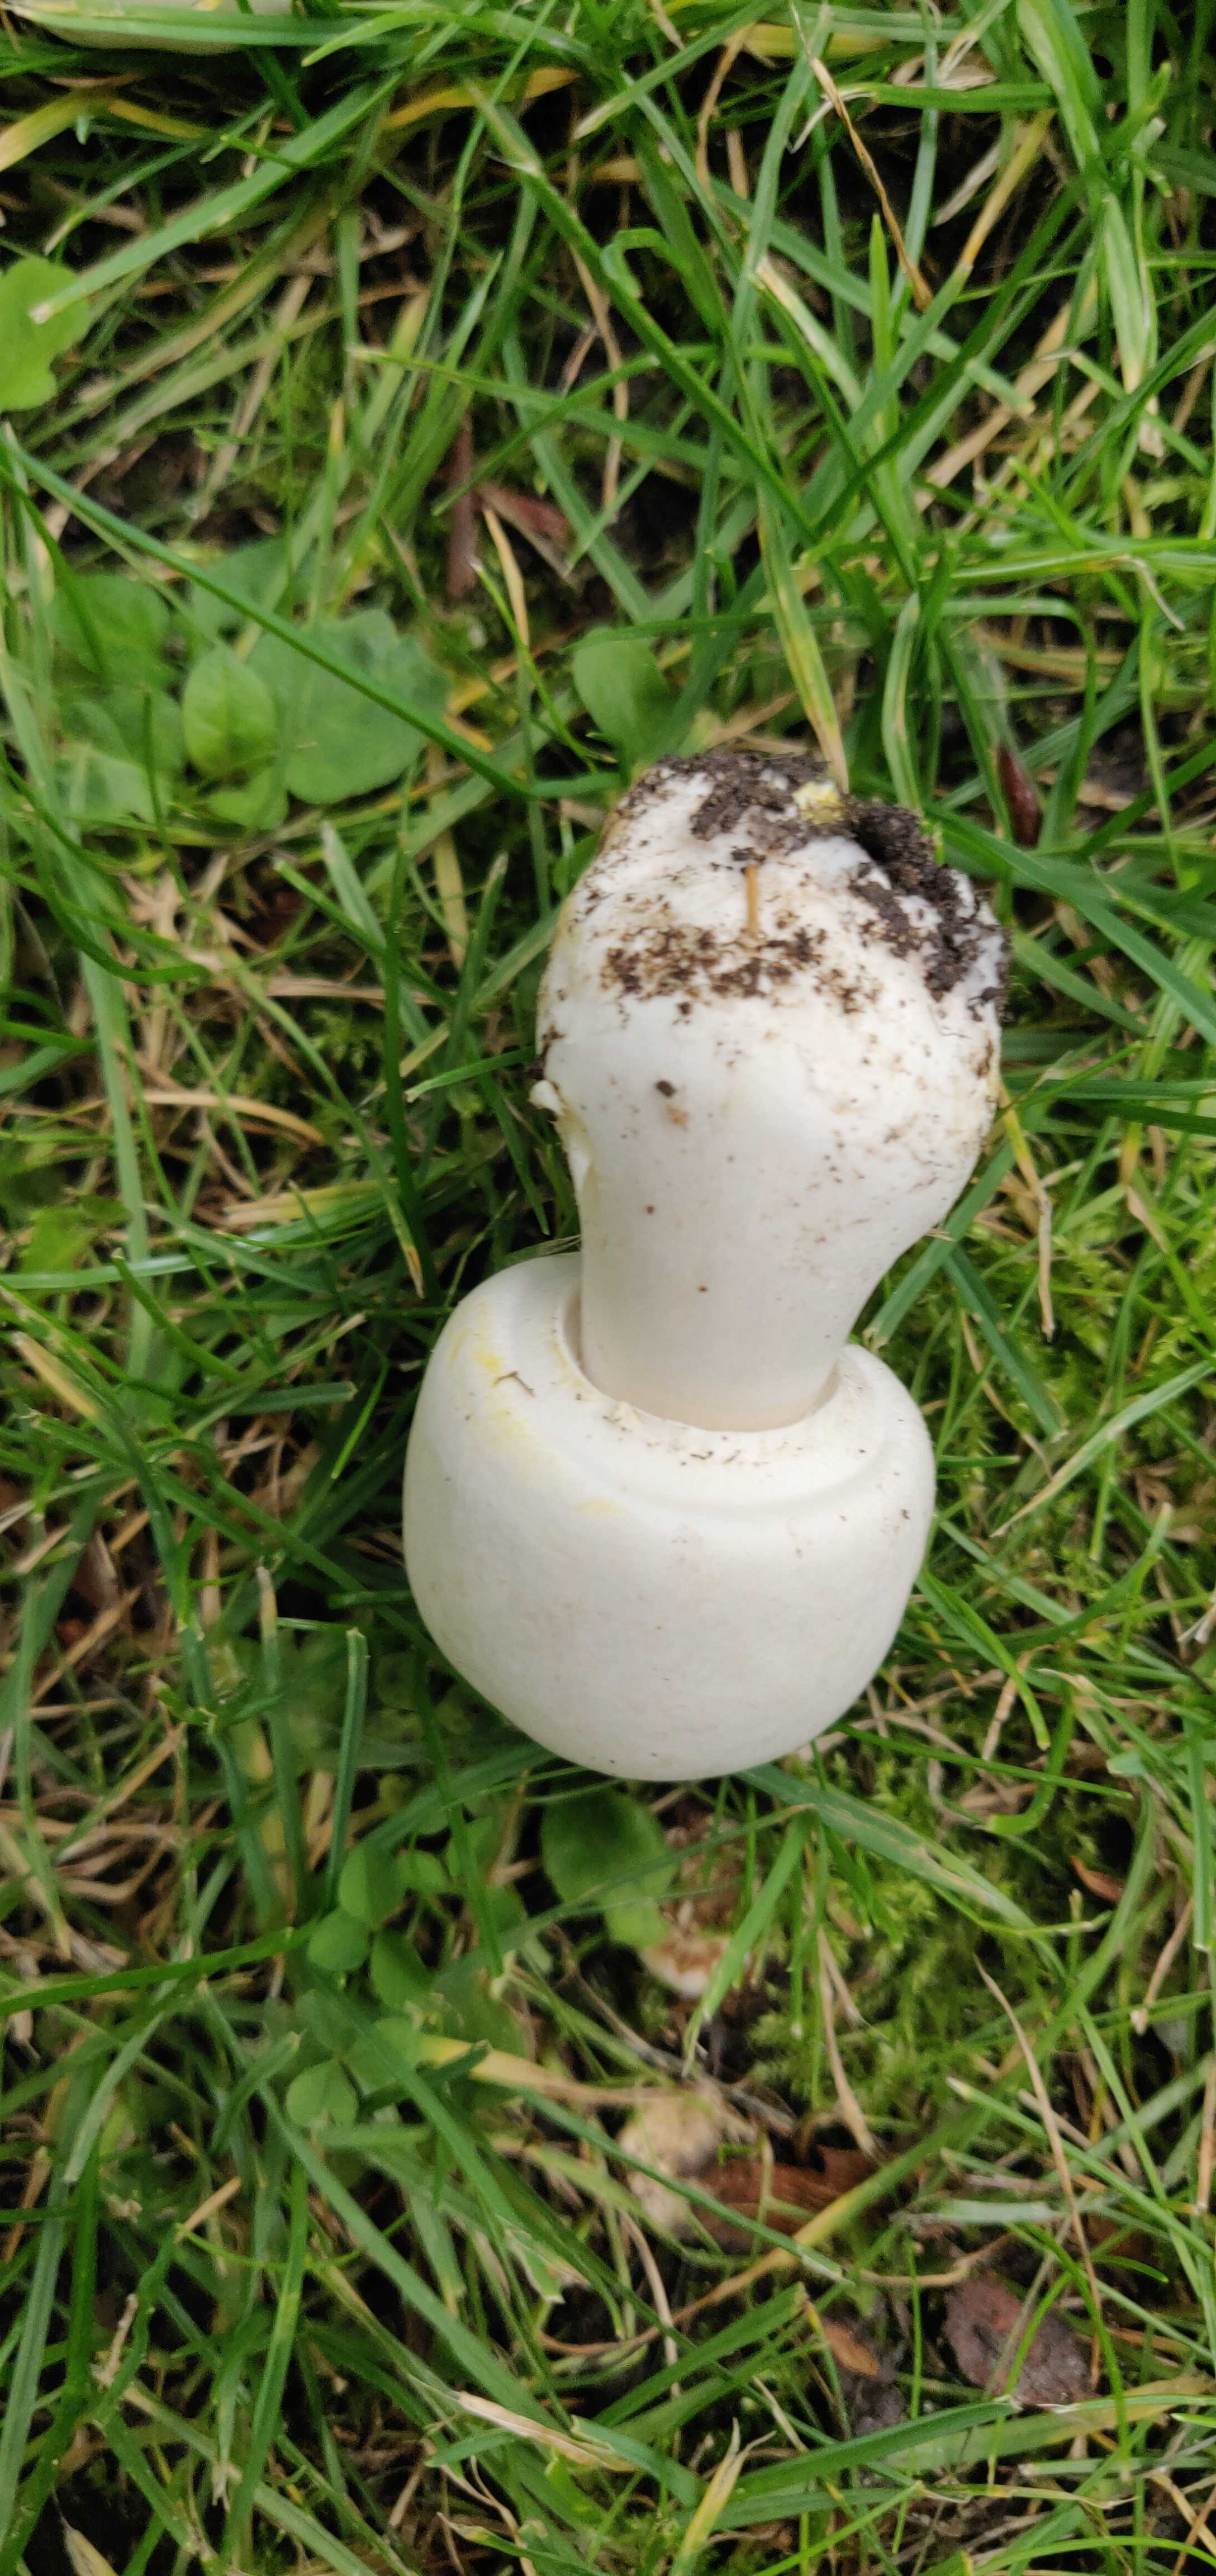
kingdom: Fungi
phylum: Basidiomycota
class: Agaricomycetes
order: Agaricales
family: Agaricaceae
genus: Agaricus
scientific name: Agaricus xanthodermus
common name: karbol-champignon
